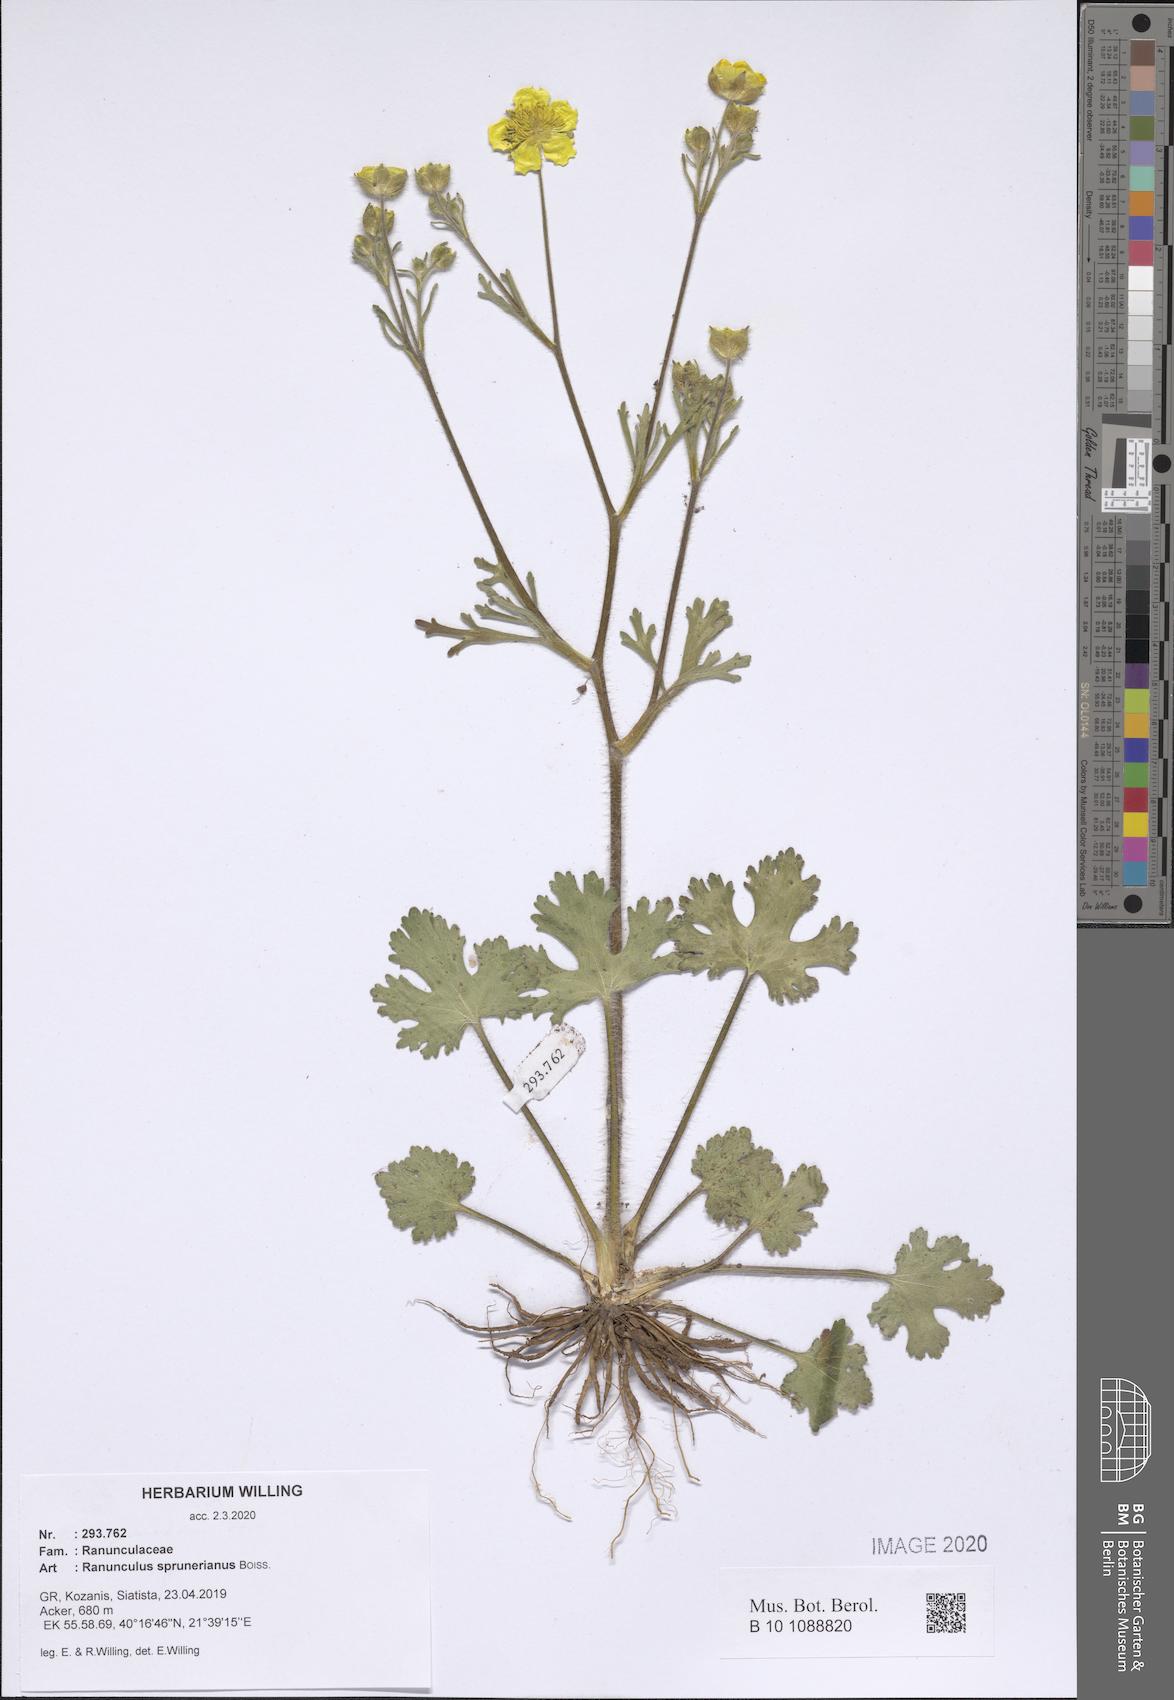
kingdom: Plantae
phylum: Tracheophyta
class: Magnoliopsida
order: Ranunculales
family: Ranunculaceae
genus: Ranunculus
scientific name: Ranunculus sprunerianus
